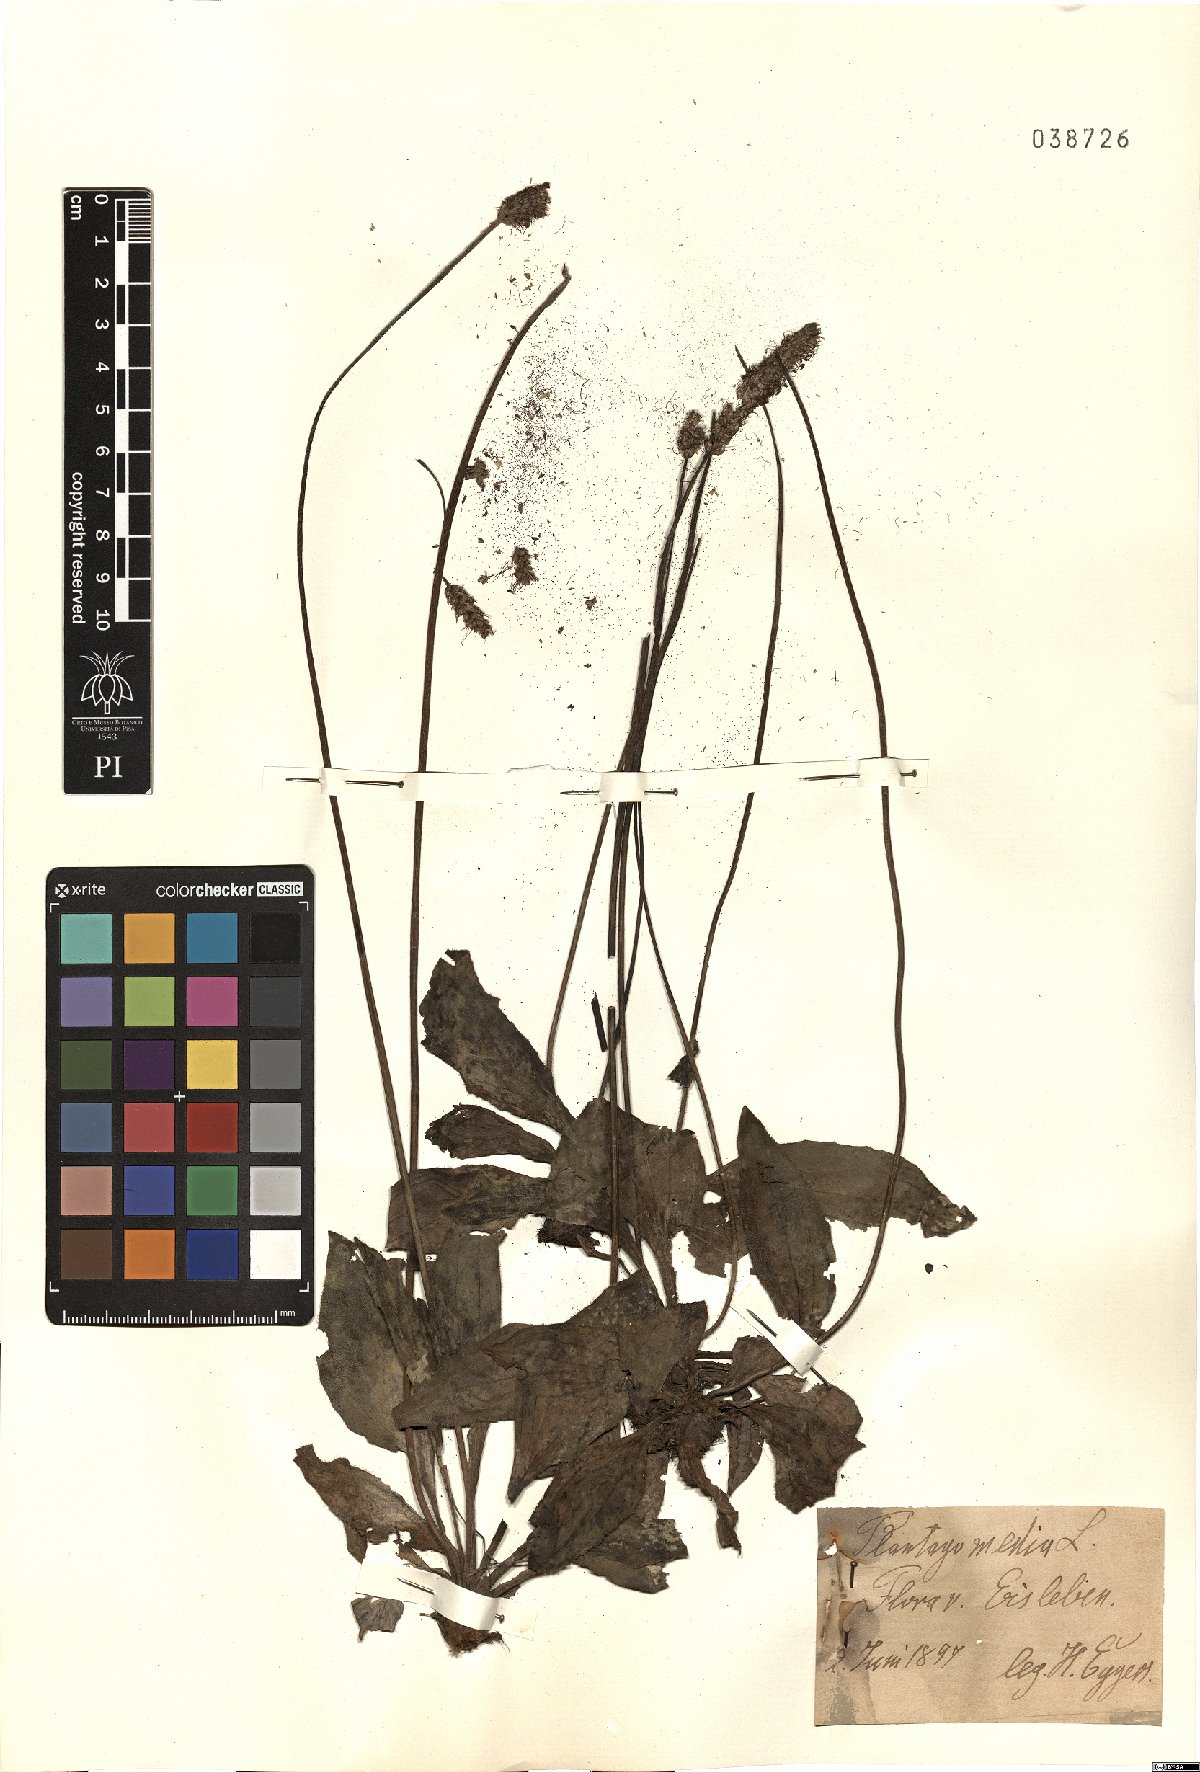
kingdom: Plantae
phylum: Tracheophyta
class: Magnoliopsida
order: Lamiales
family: Plantaginaceae
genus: Plantago
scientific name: Plantago media
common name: Hoary plantain
